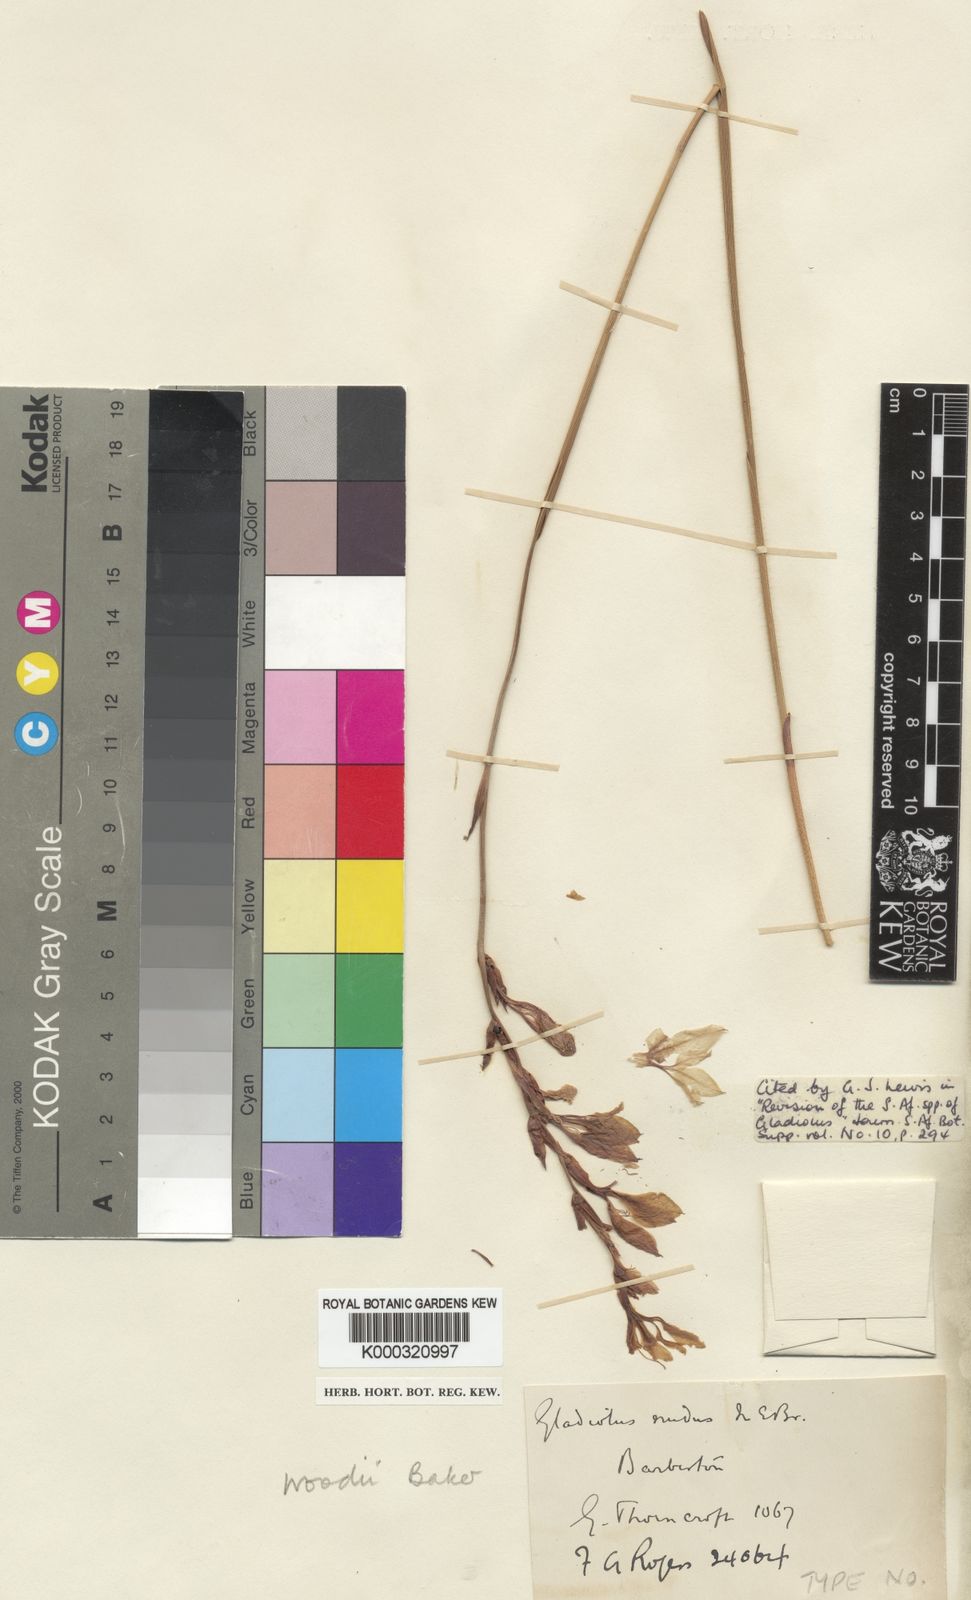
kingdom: Plantae
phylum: Tracheophyta
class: Liliopsida
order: Asparagales
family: Iridaceae
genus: Gladiolus
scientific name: Gladiolus woodii
